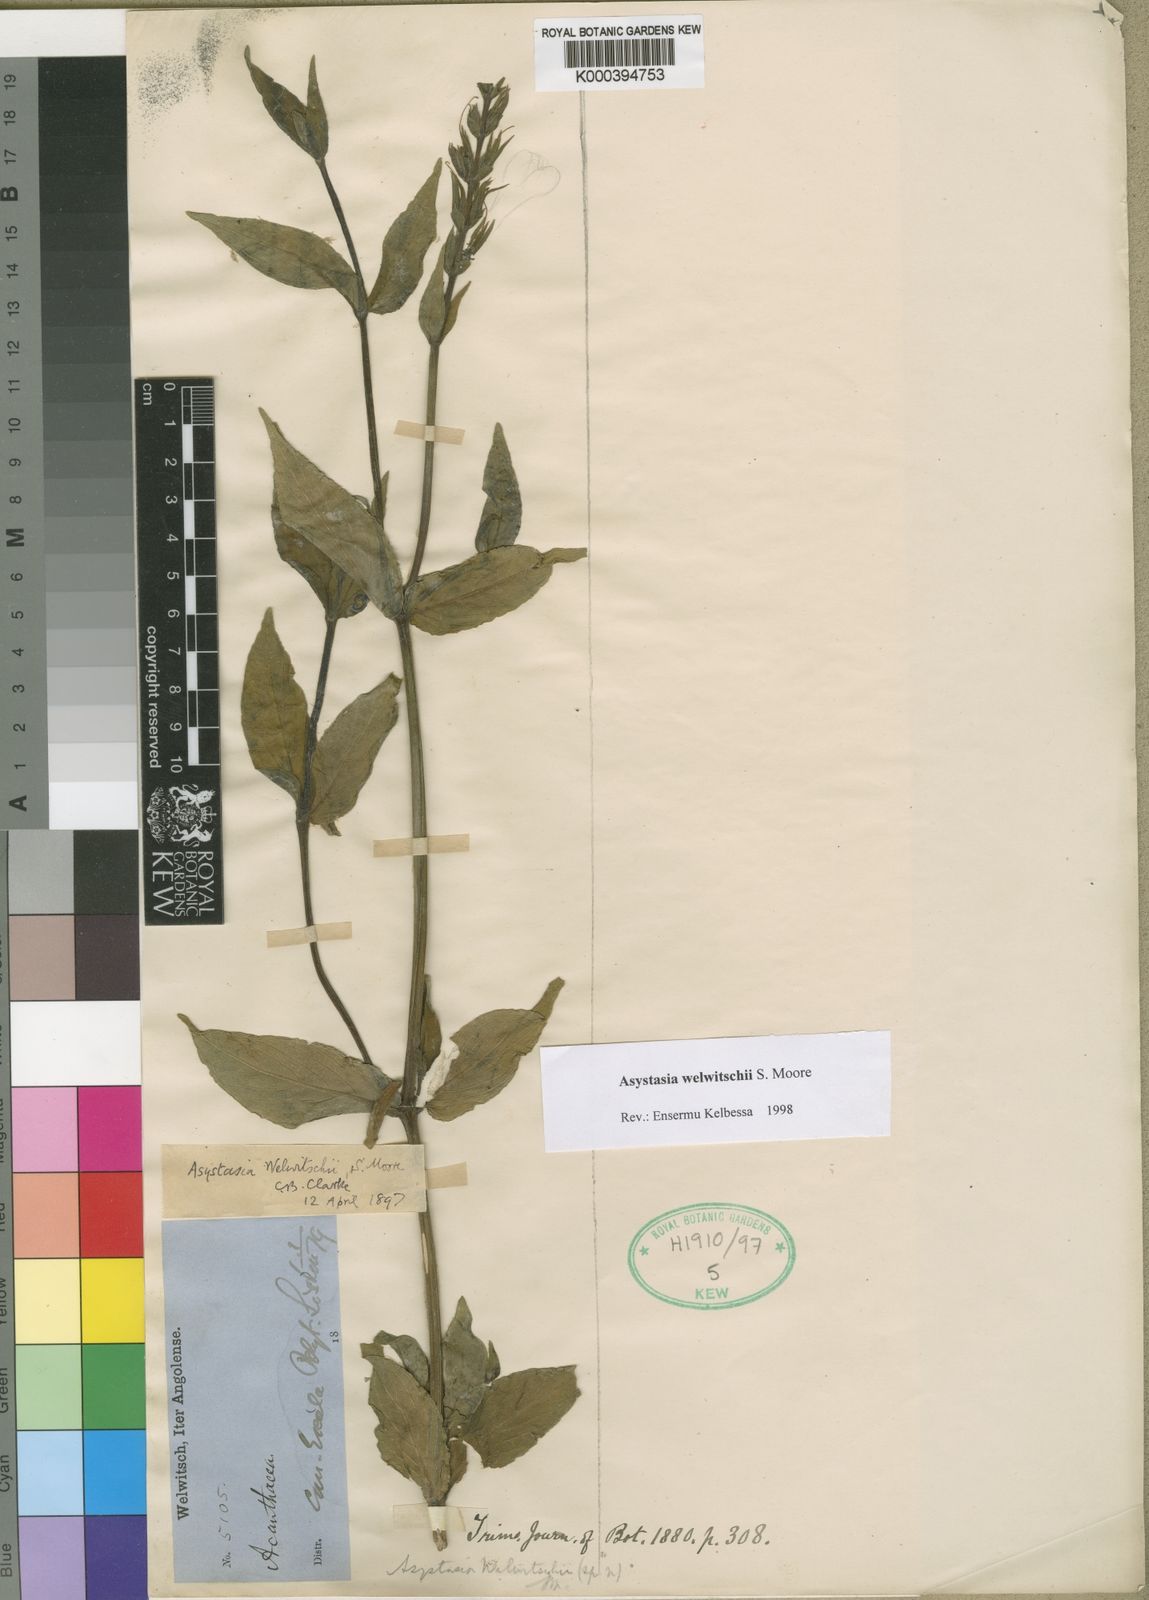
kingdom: Plantae
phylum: Tracheophyta
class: Magnoliopsida
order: Lamiales
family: Acanthaceae
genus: Asystasia
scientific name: Asystasia welwitschii
